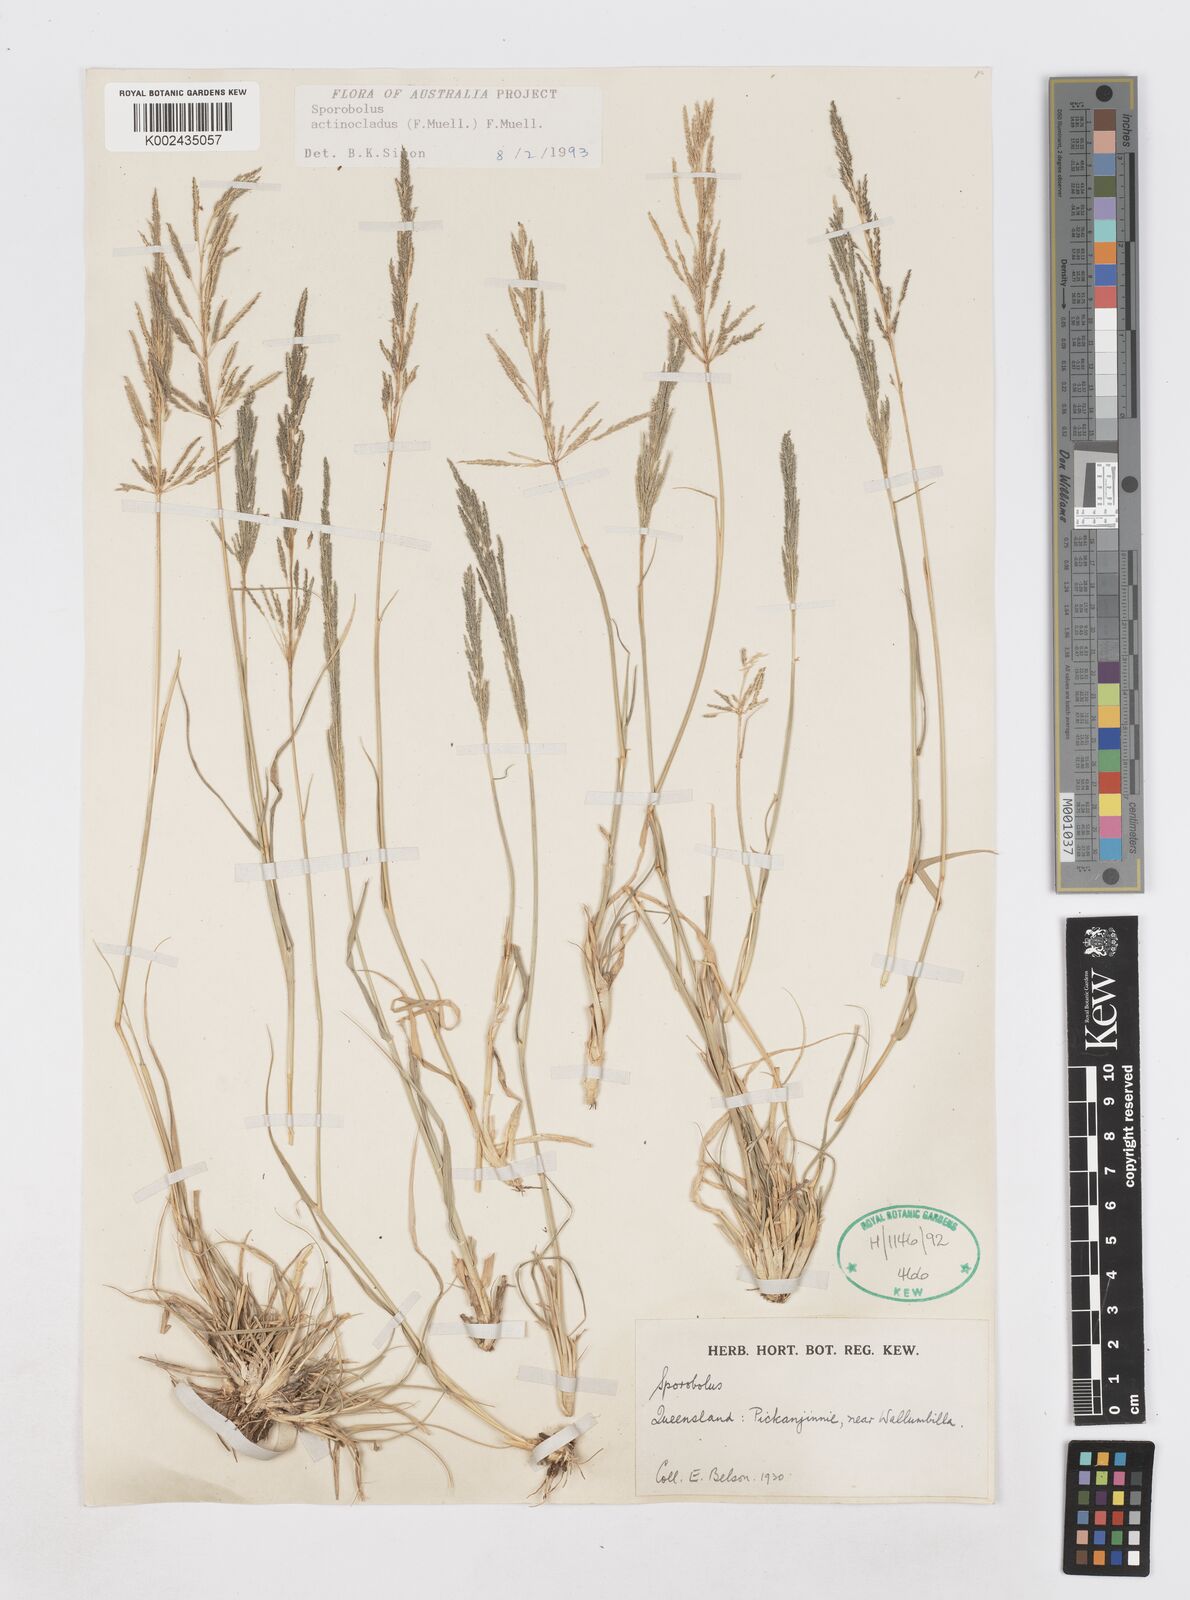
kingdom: Plantae
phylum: Tracheophyta
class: Liliopsida
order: Poales
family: Poaceae
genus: Sporobolus
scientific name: Sporobolus actinocladus
